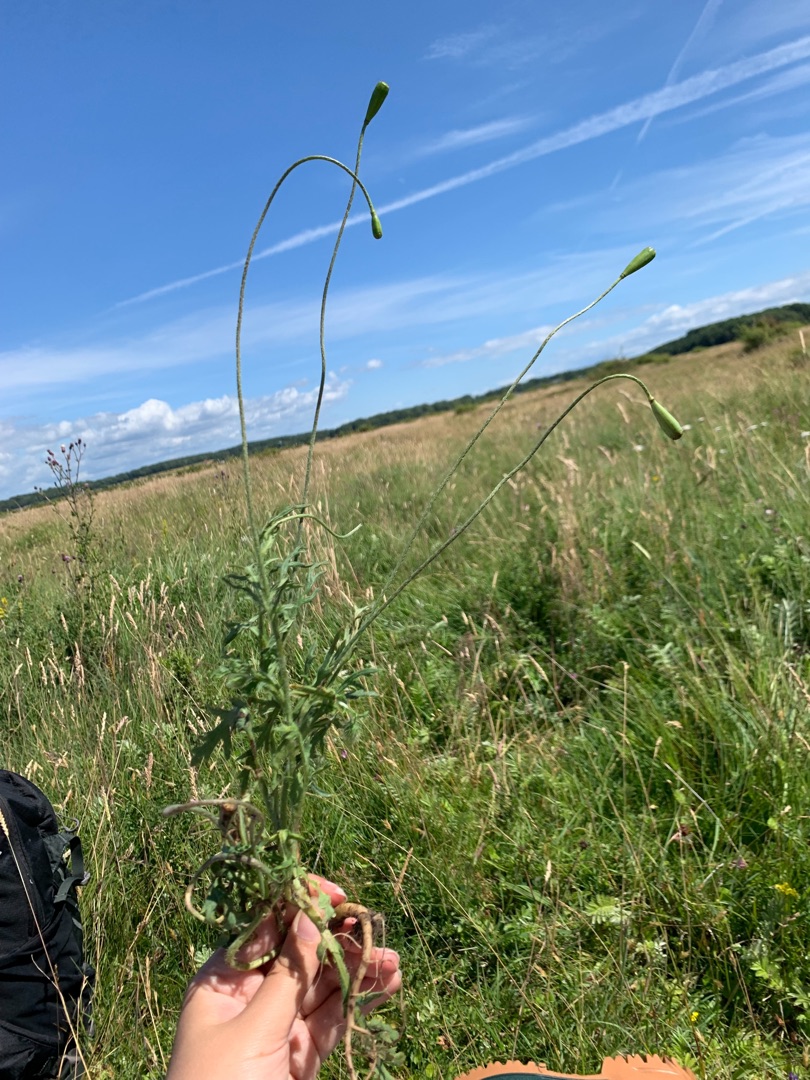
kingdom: Plantae
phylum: Tracheophyta
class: Magnoliopsida
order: Ranunculales
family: Papaveraceae
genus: Papaver
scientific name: Papaver dubium
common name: Gærde-valmue
